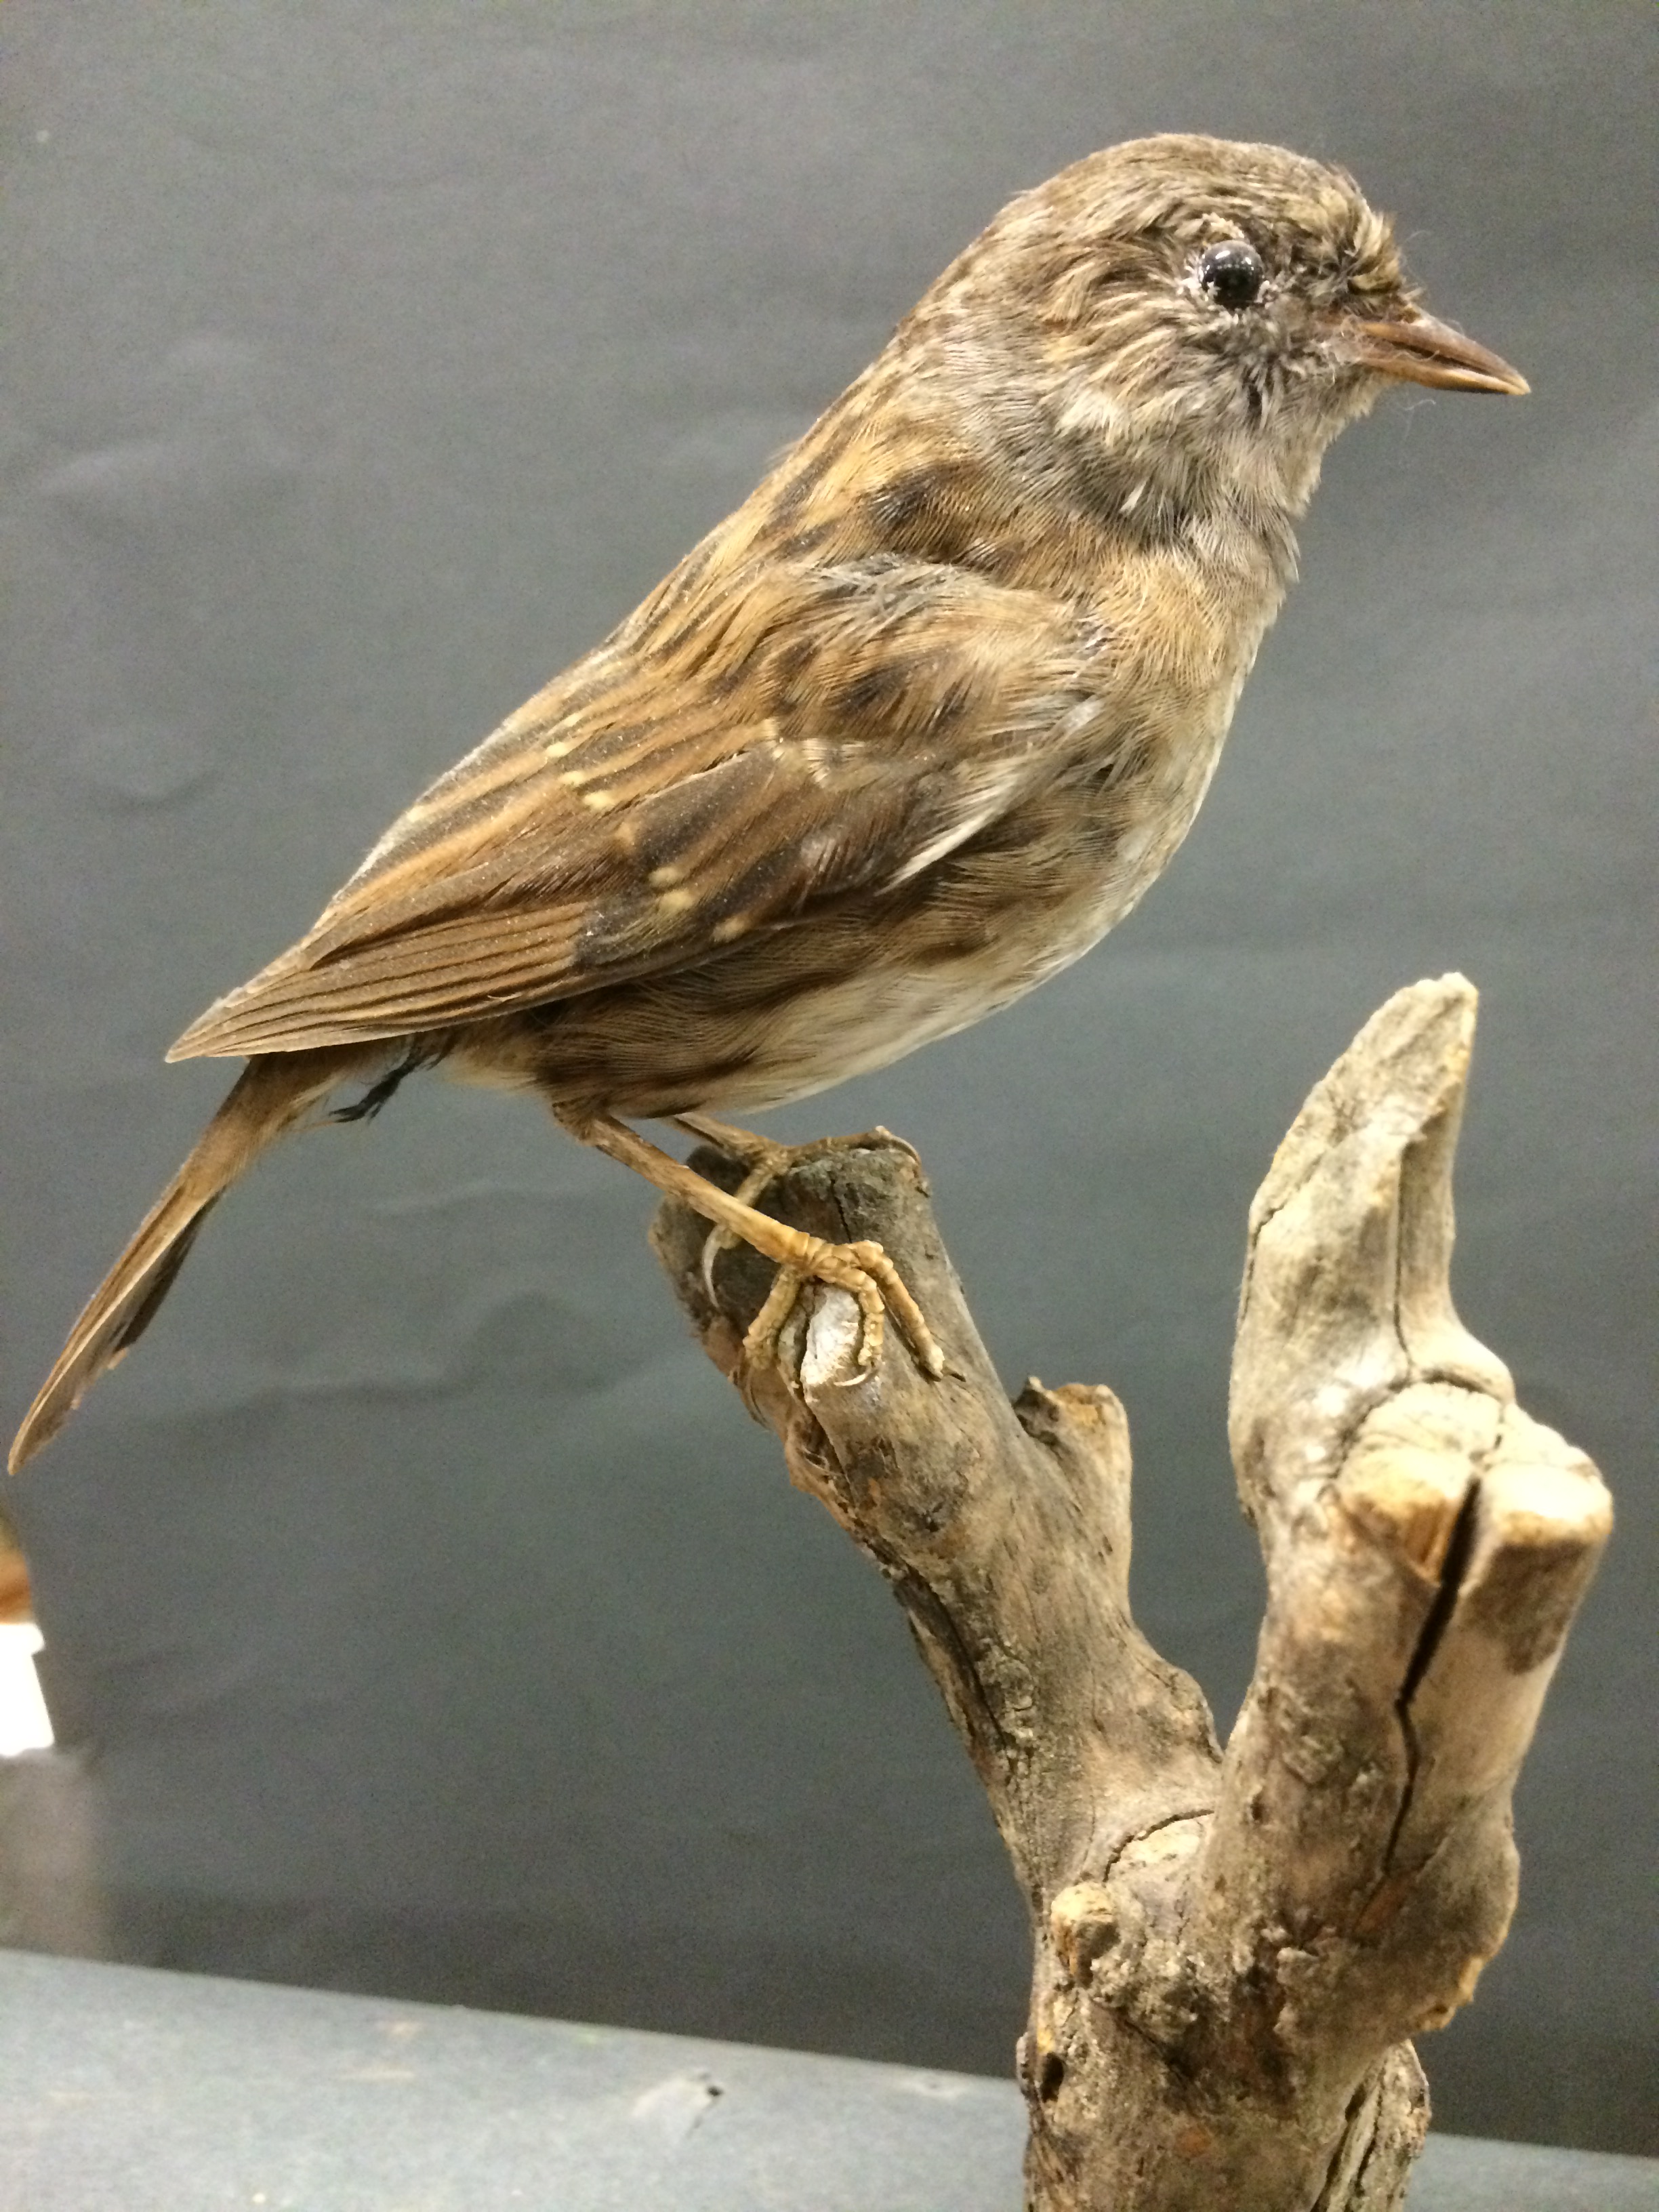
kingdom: Animalia
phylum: Chordata
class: Aves
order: Passeriformes
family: Prunellidae
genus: Prunella
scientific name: Prunella modularis
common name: Dunnock
